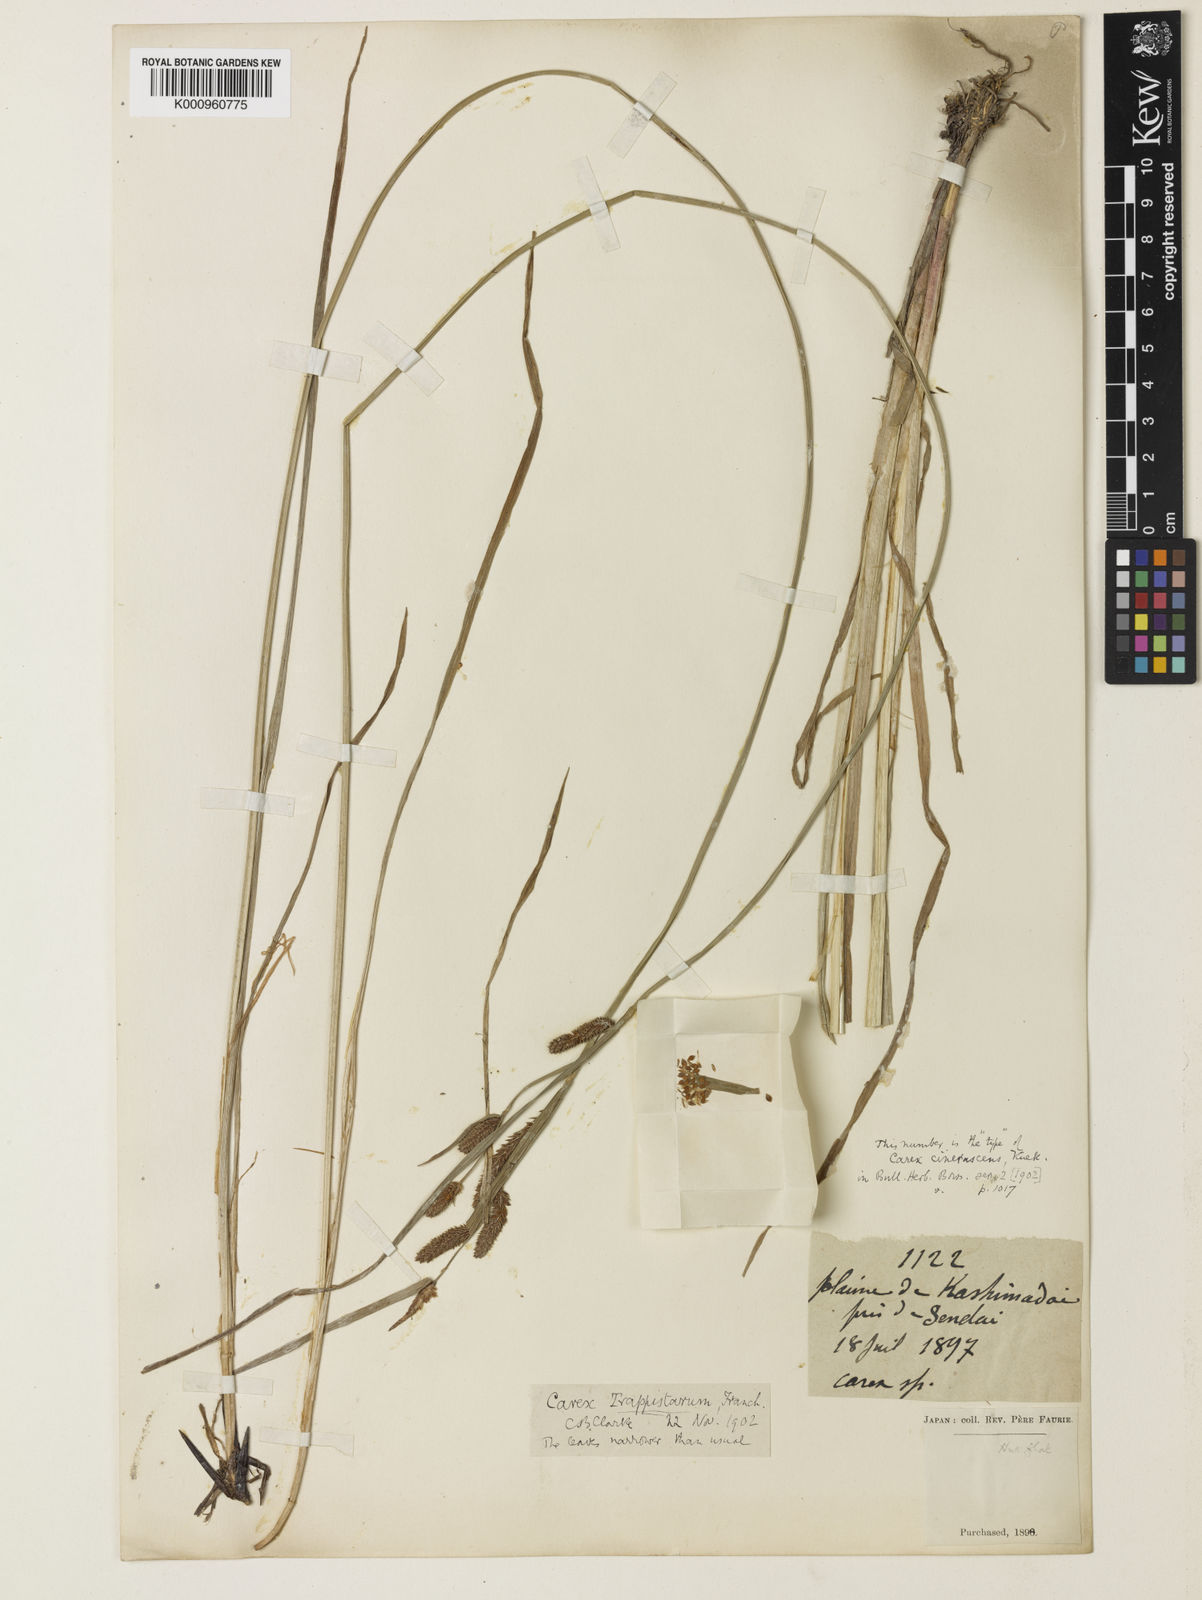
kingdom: Plantae
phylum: Tracheophyta
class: Liliopsida
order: Poales
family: Cyperaceae
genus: Carex
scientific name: Carex
